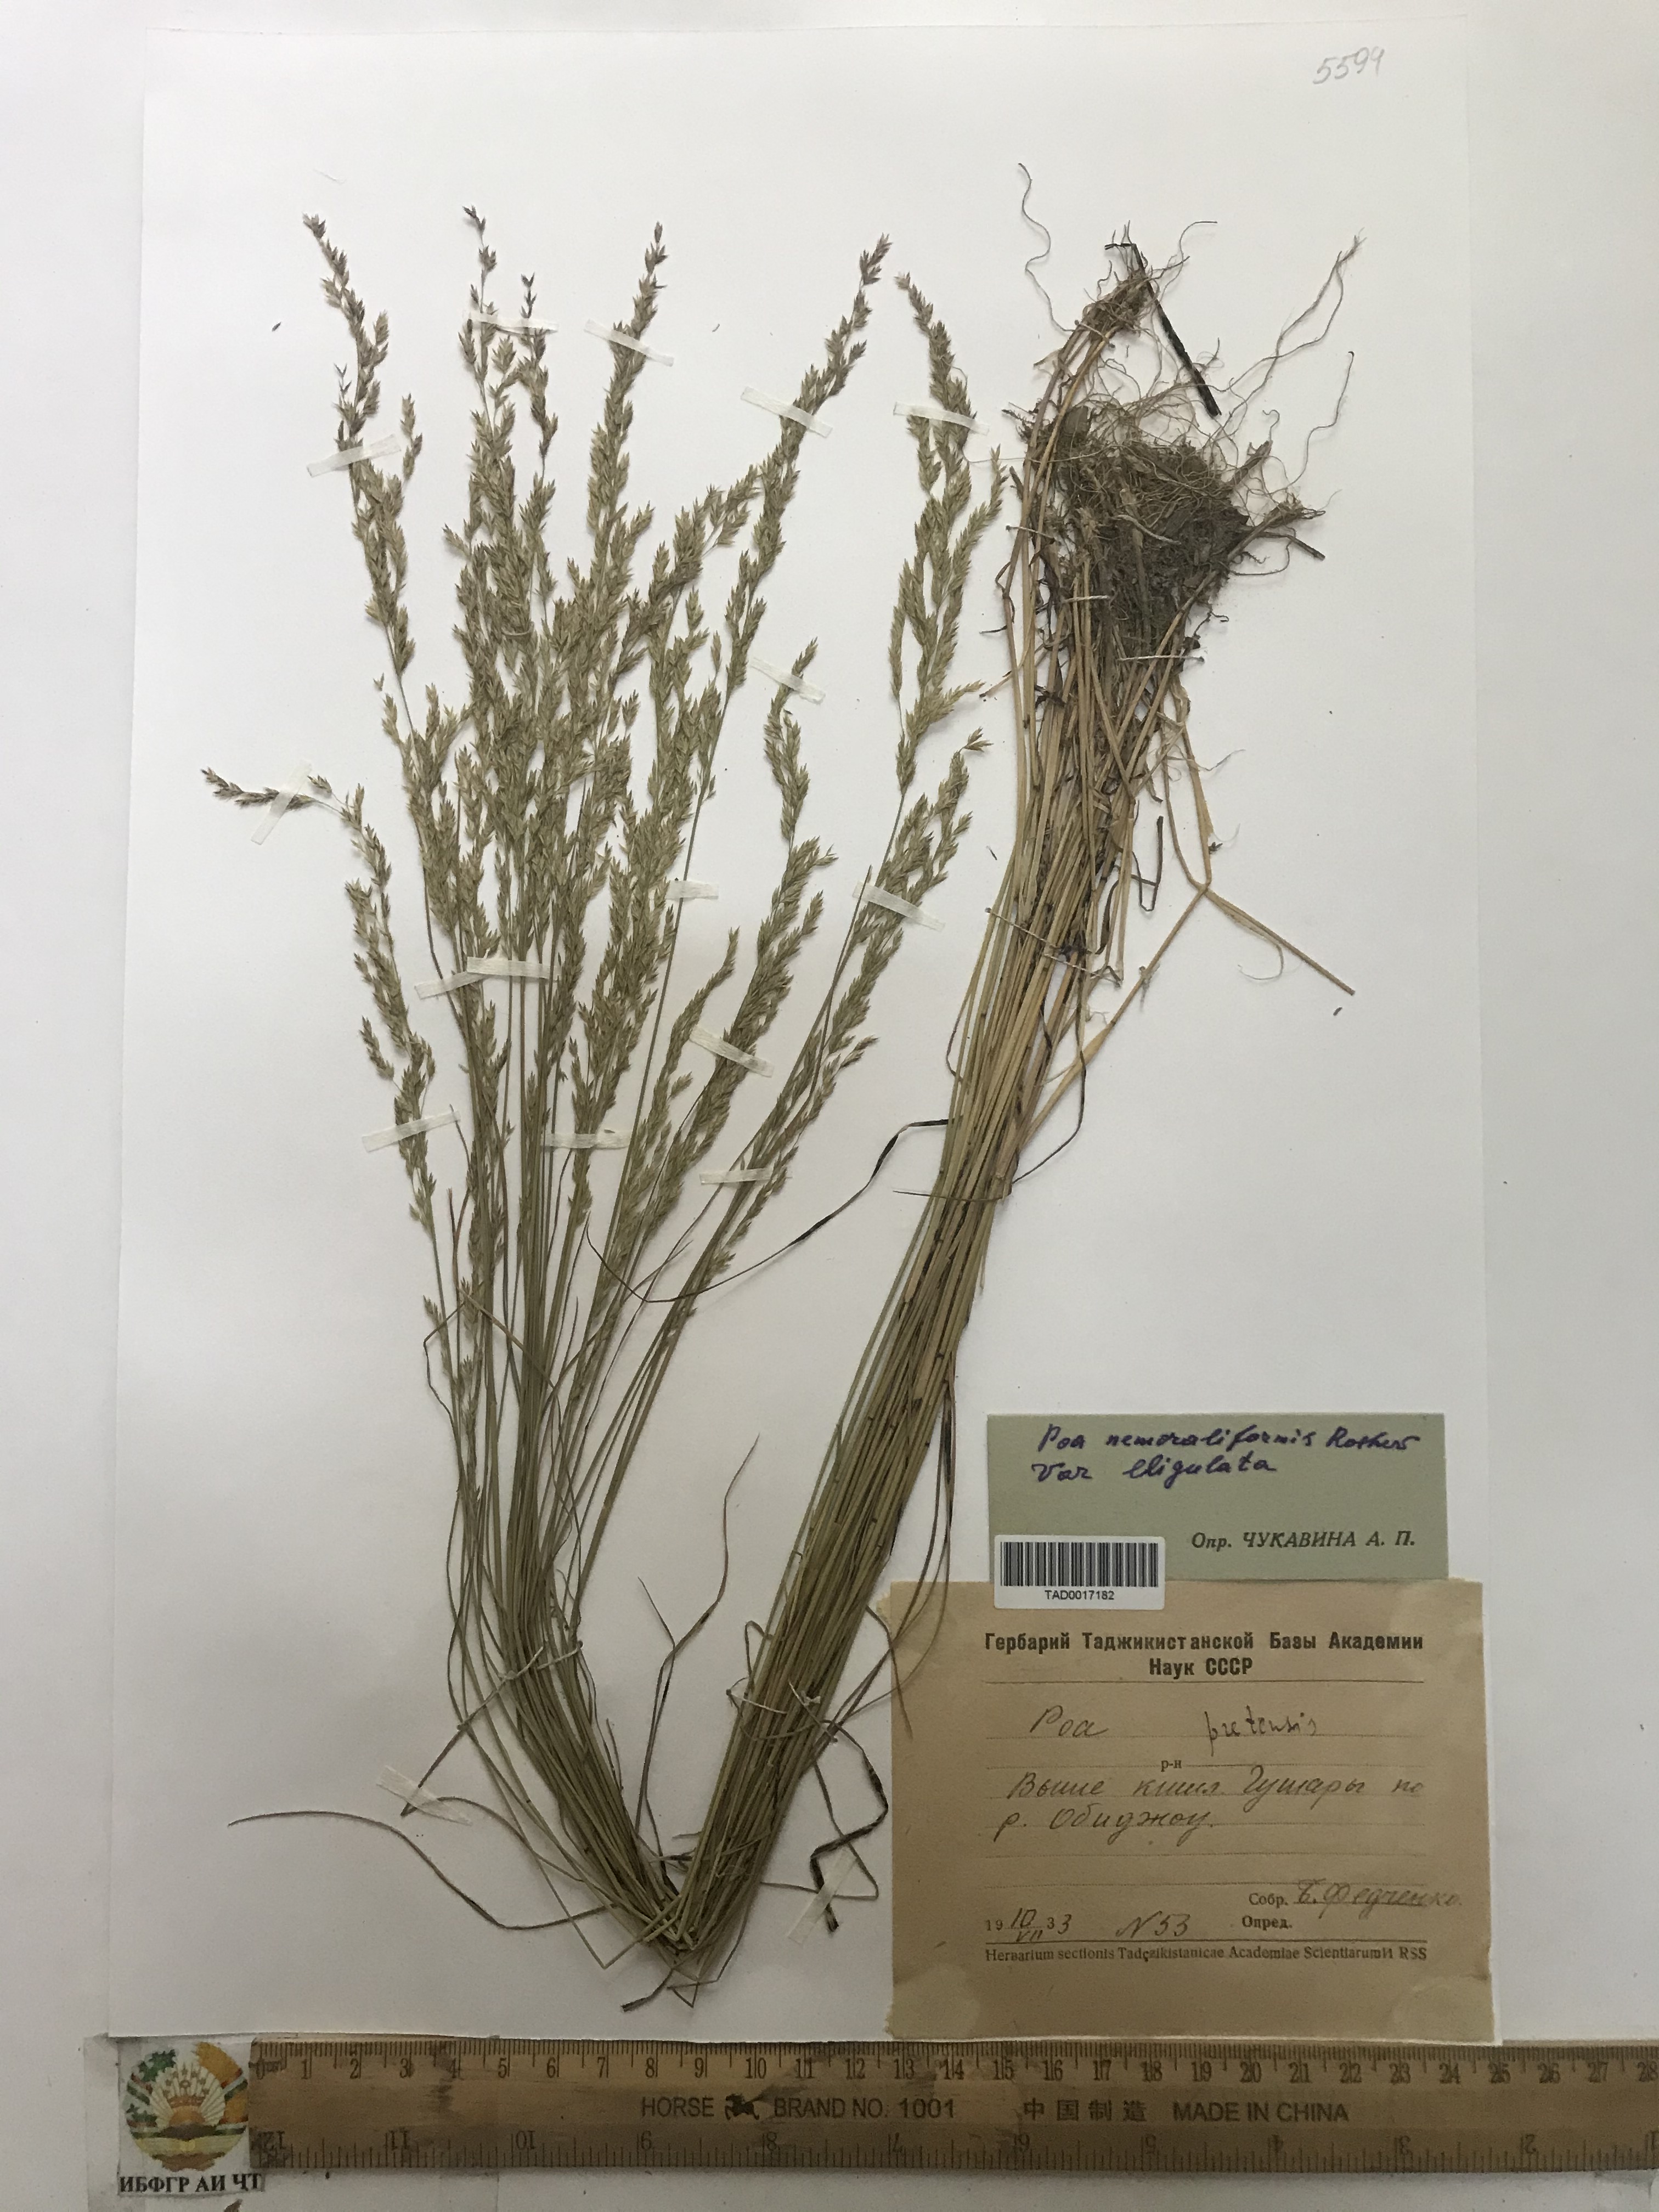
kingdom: Plantae
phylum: Tracheophyta
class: Liliopsida
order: Poales
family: Poaceae
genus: Poa
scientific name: Poa urssulensis
